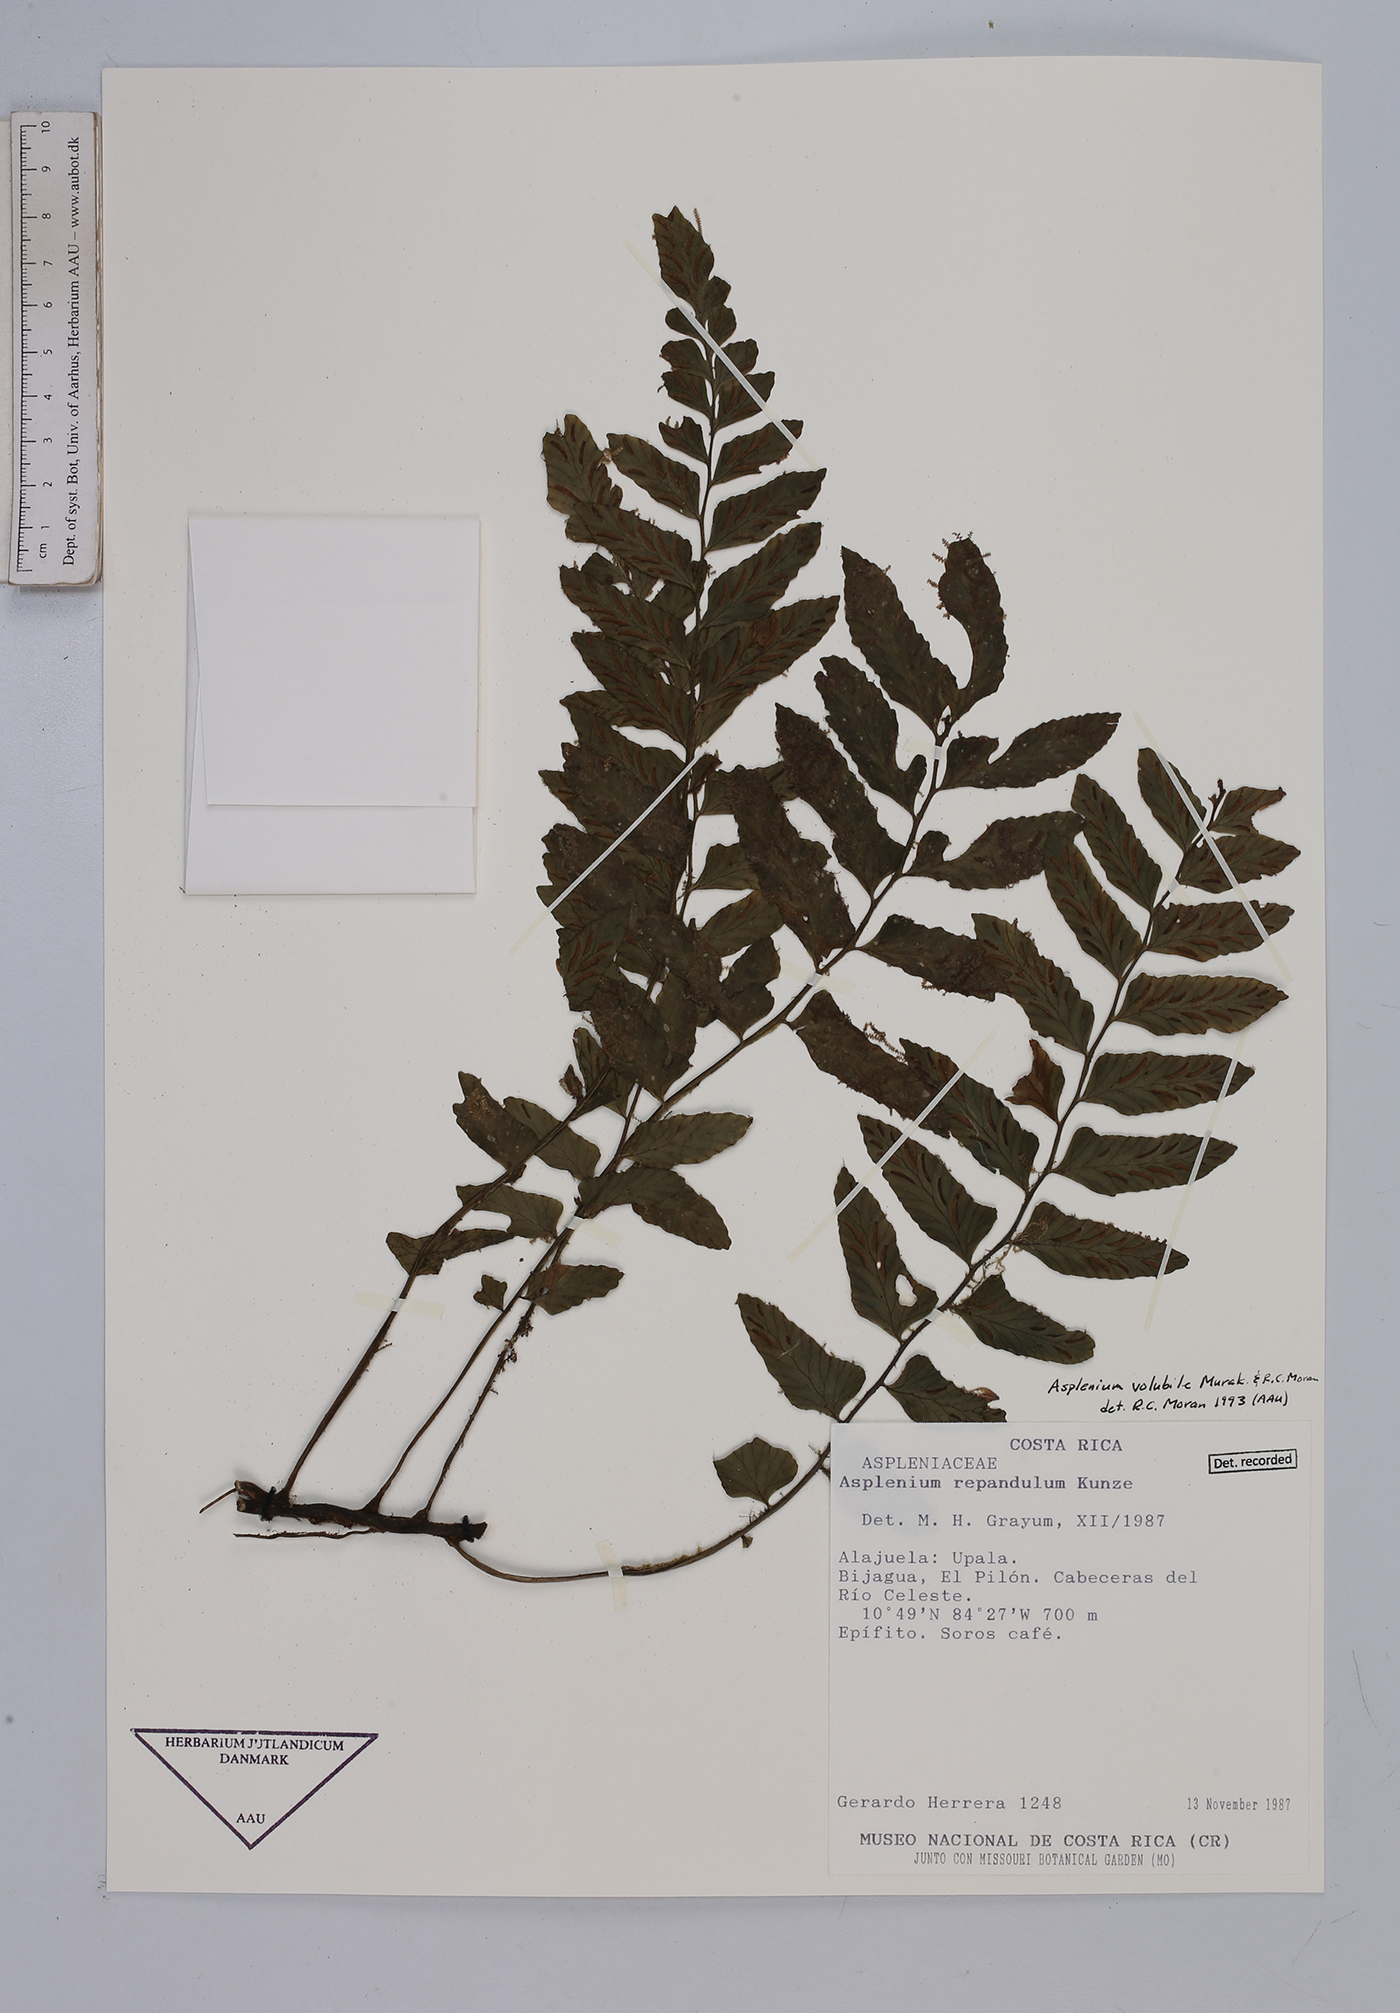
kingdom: Plantae
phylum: Tracheophyta
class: Polypodiopsida
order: Polypodiales
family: Aspleniaceae
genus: Hymenasplenium
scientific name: Hymenasplenium volubile
